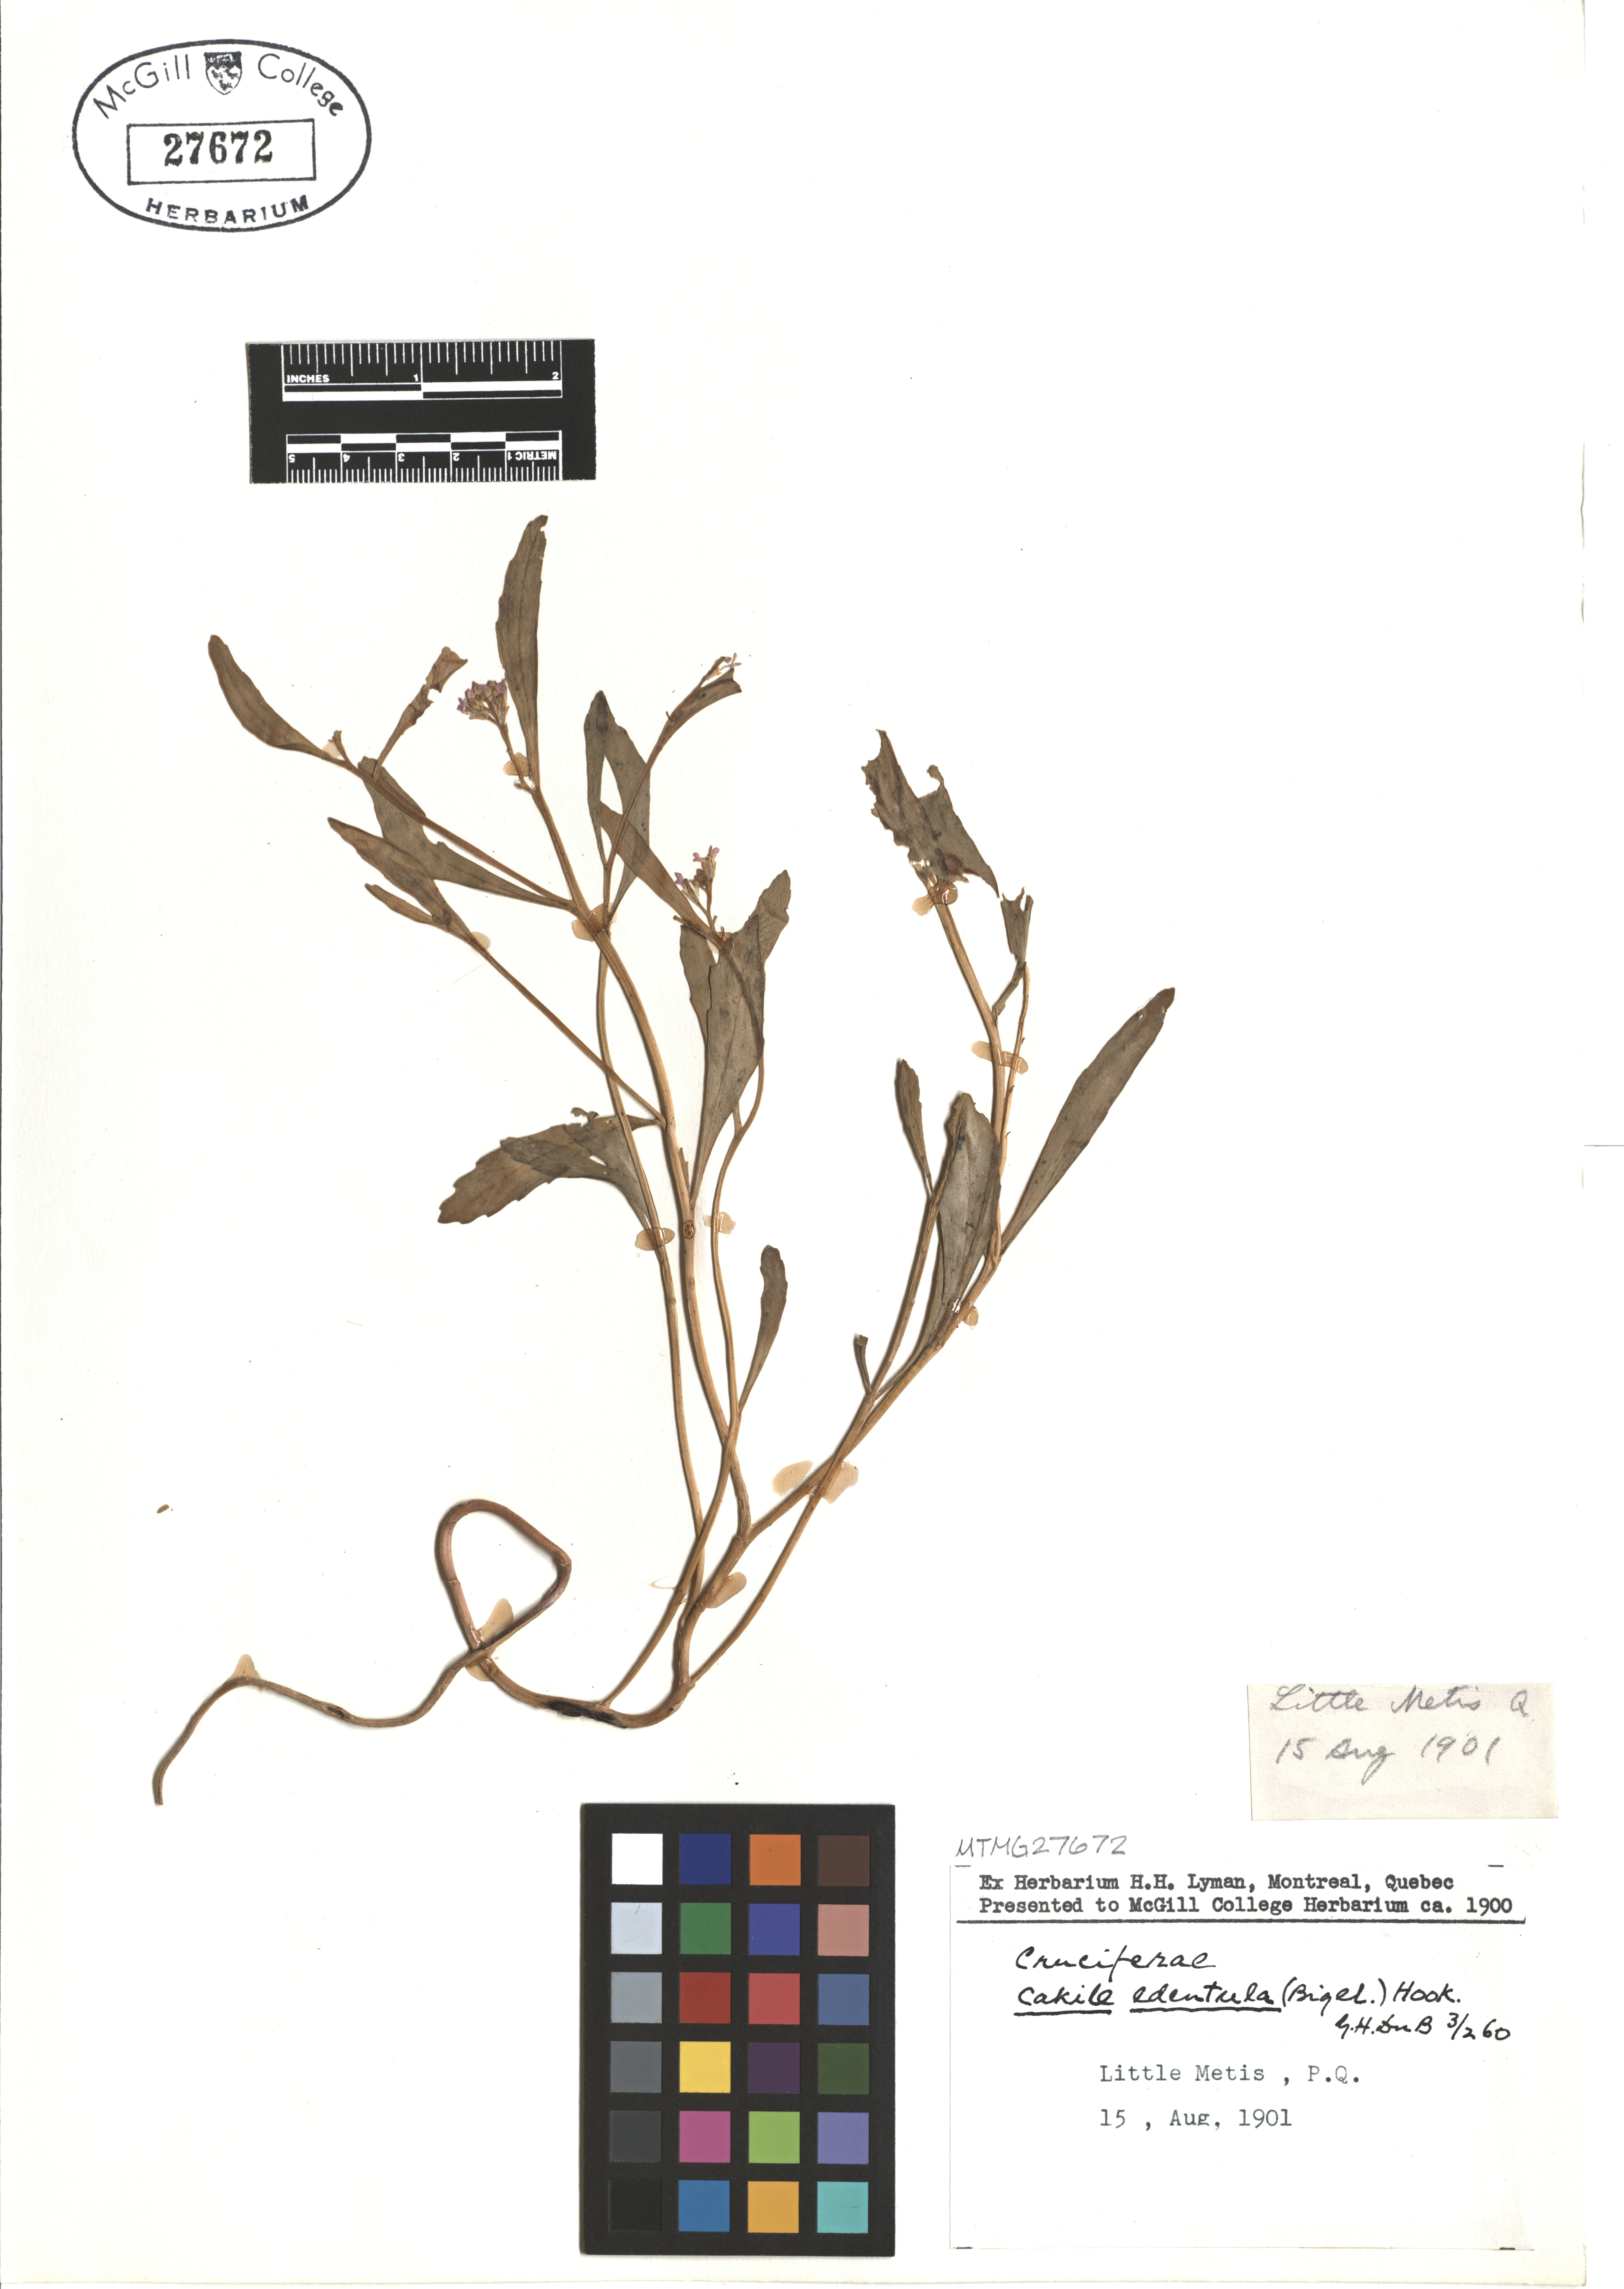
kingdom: Plantae
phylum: Tracheophyta
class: Magnoliopsida
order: Brassicales
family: Brassicaceae
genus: Cakile
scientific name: Cakile edentula
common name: American sea rocket
